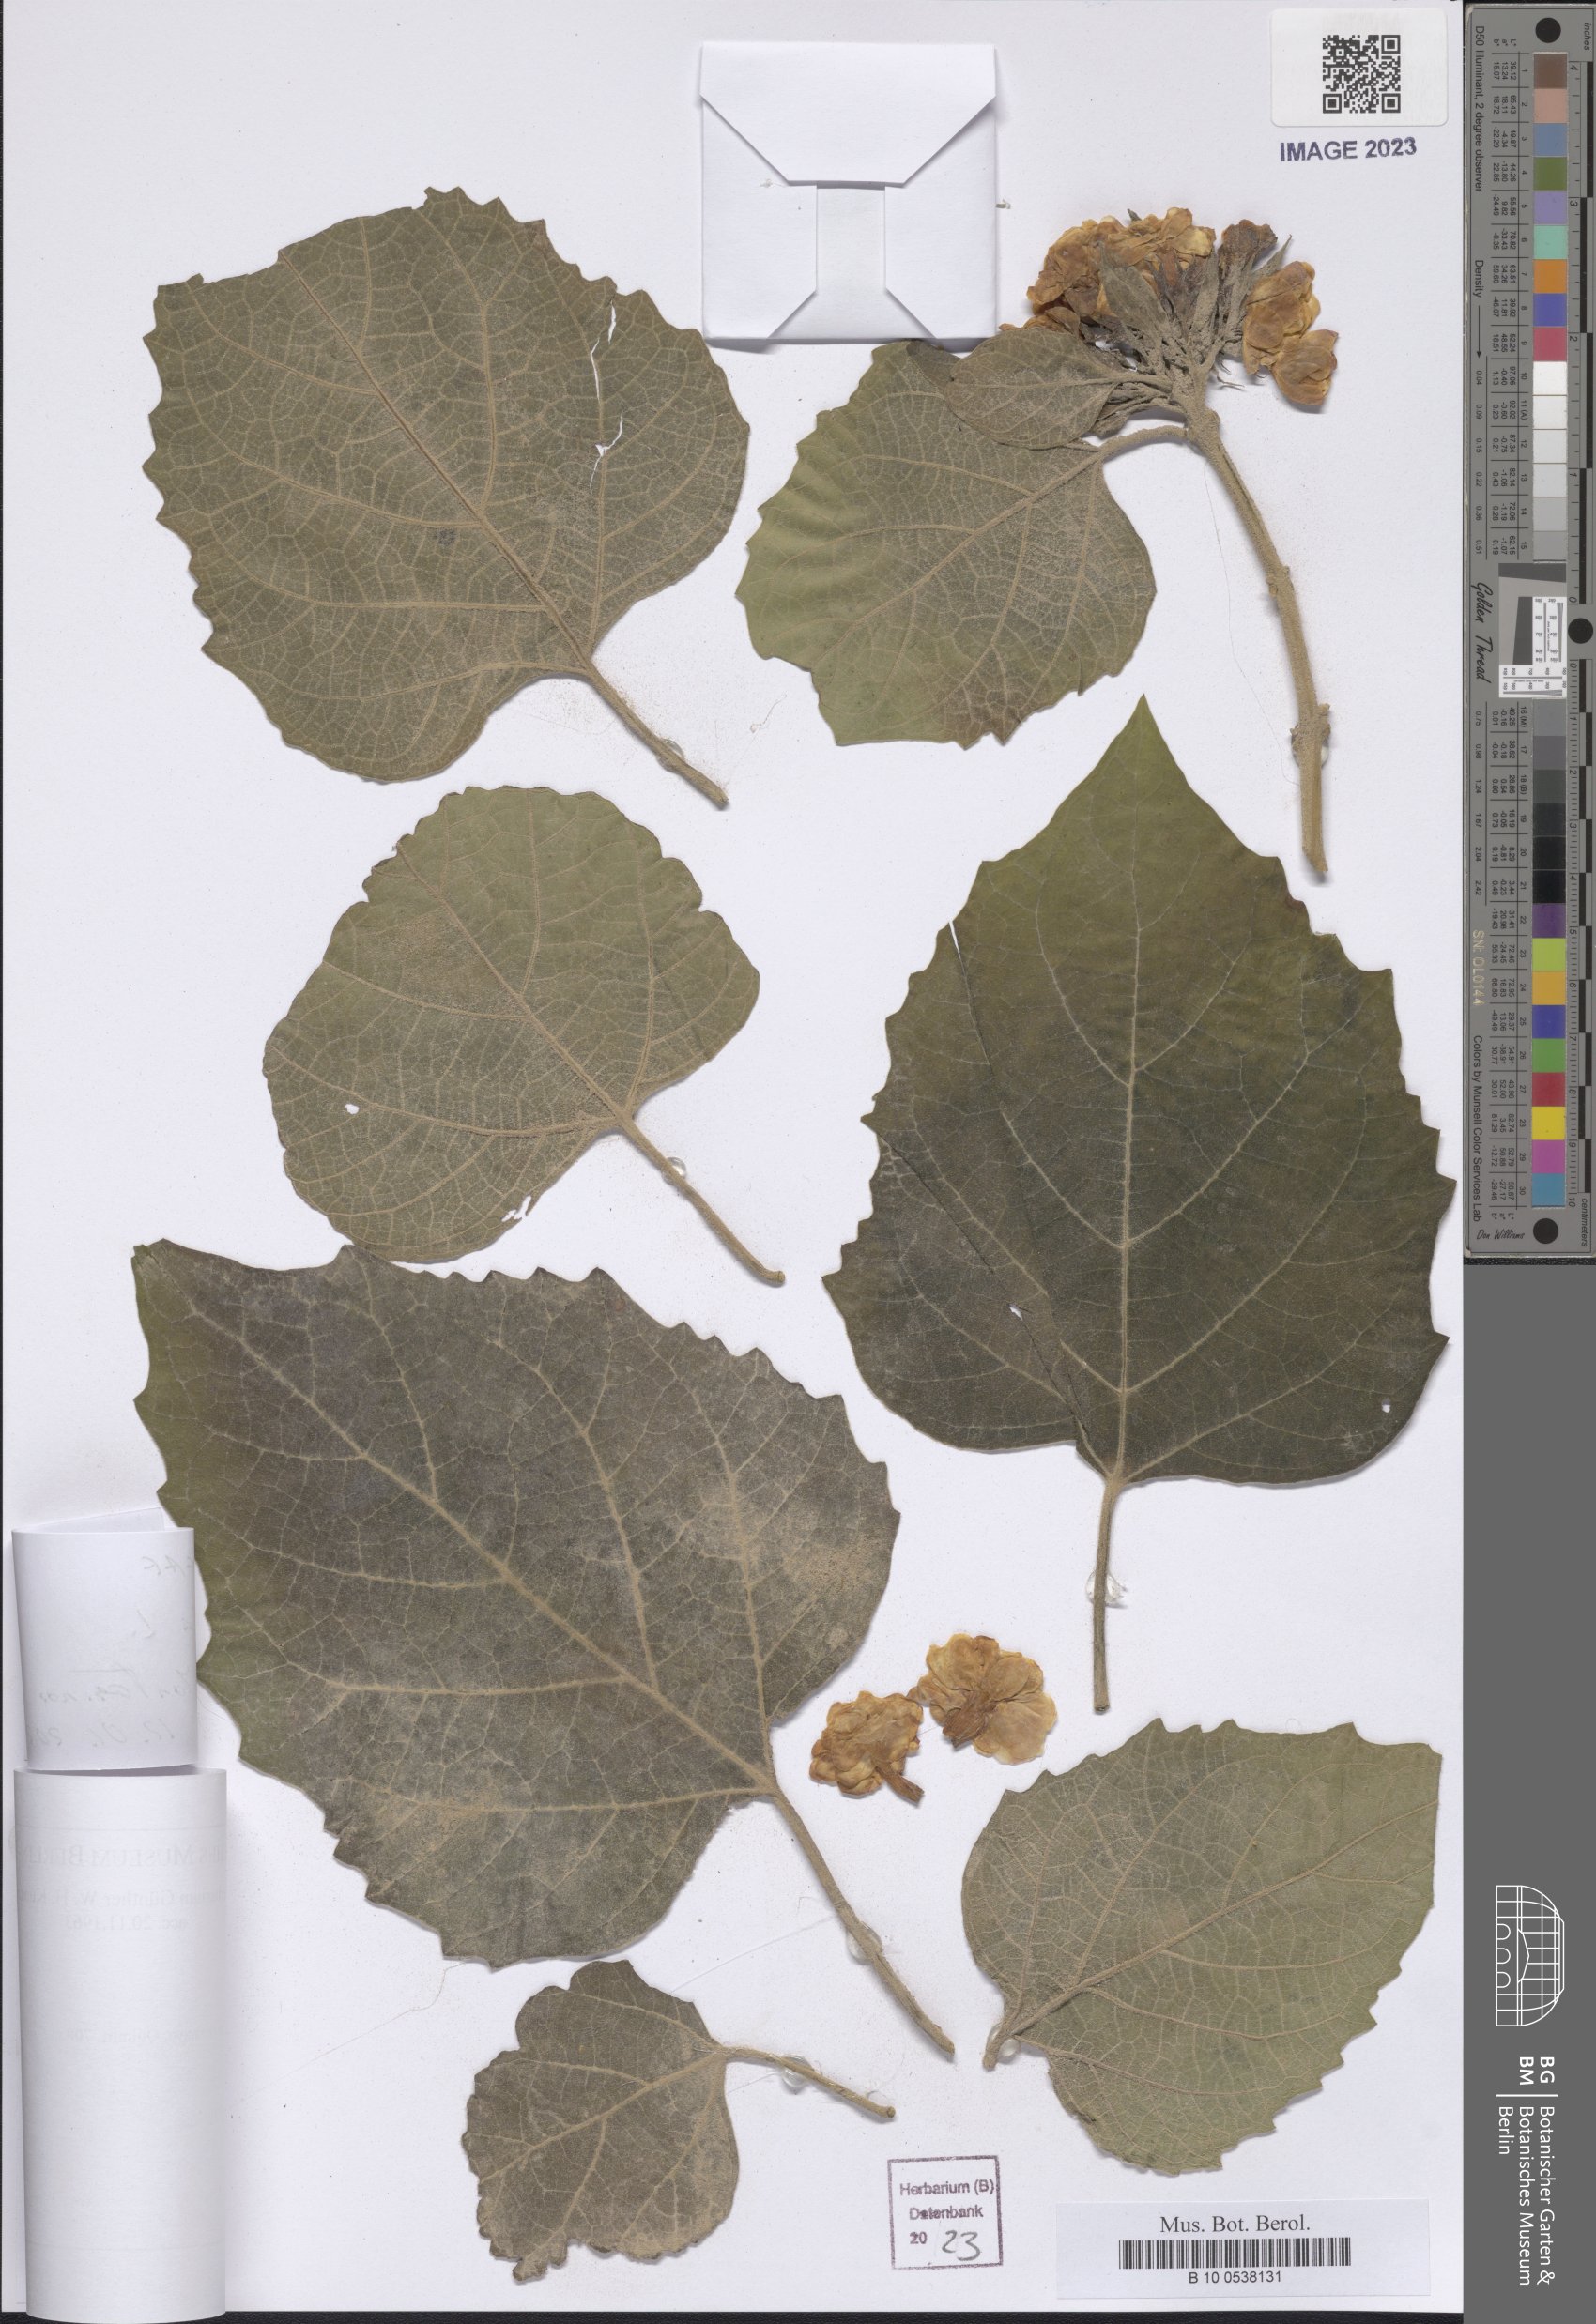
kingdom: Plantae
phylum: Tracheophyta
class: Magnoliopsida
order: Malvales
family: Malvaceae
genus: Melochia
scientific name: Melochia
